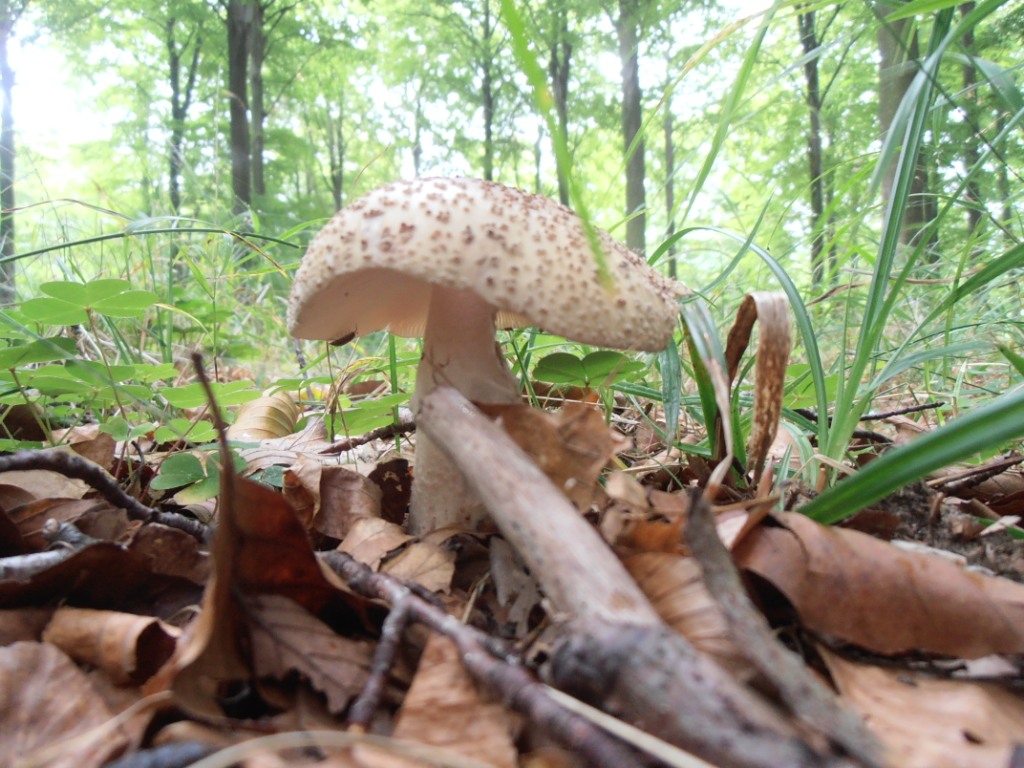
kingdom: Fungi
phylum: Basidiomycota
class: Agaricomycetes
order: Agaricales
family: Amanitaceae
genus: Amanita
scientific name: Amanita rubescens
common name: rødmende fluesvamp
